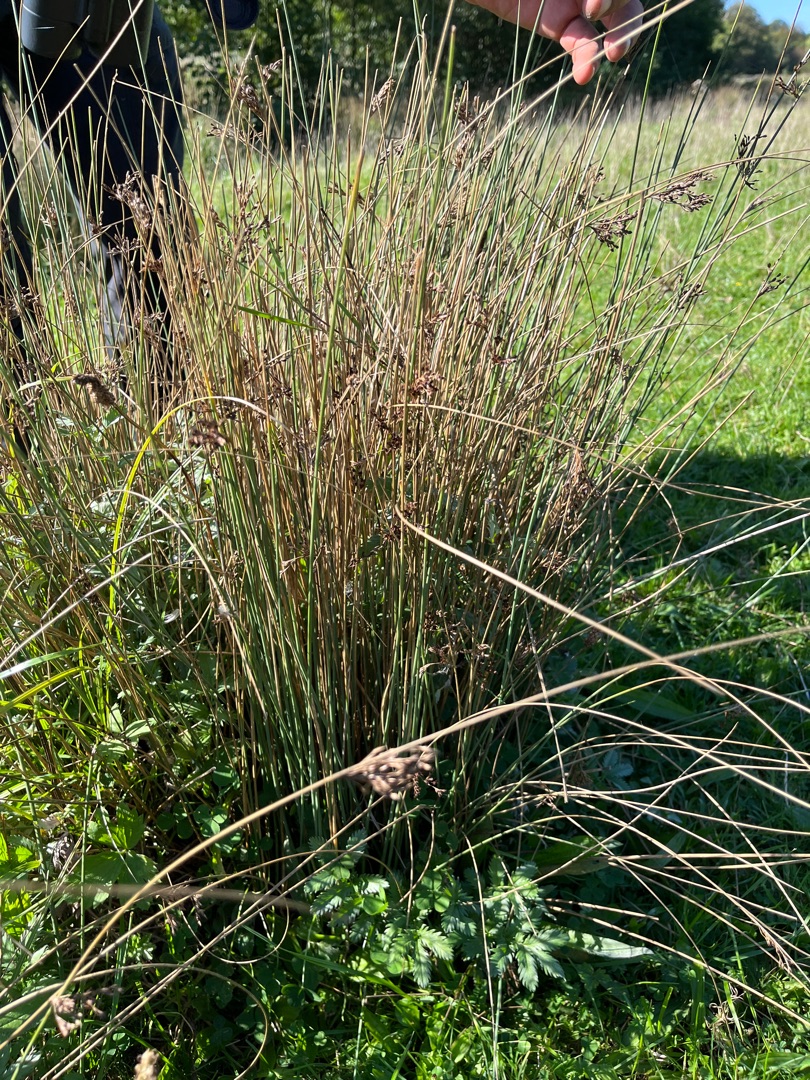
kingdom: Plantae
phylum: Tracheophyta
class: Liliopsida
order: Poales
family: Juncaceae
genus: Juncus
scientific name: Juncus inflexus
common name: Blågrå siv
